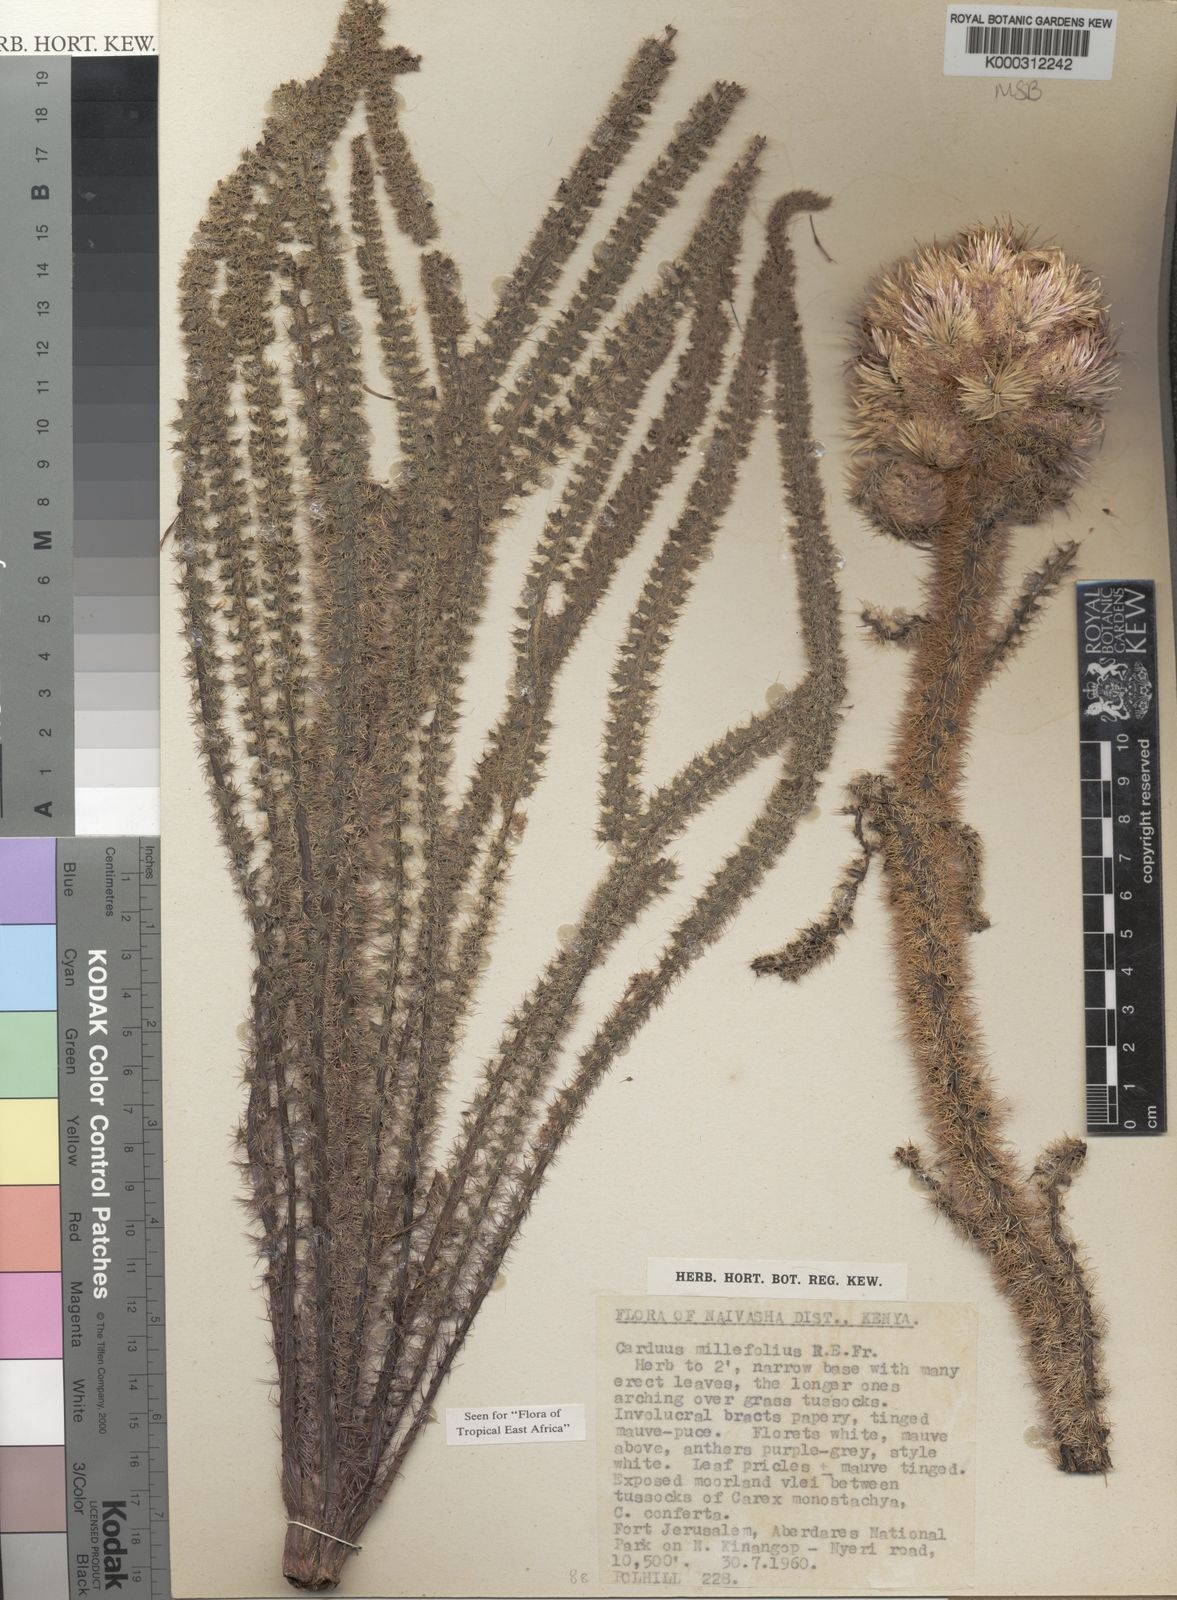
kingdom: Plantae
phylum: Tracheophyta
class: Magnoliopsida
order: Asterales
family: Asteraceae
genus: Carduus
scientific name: Carduus millefolius
